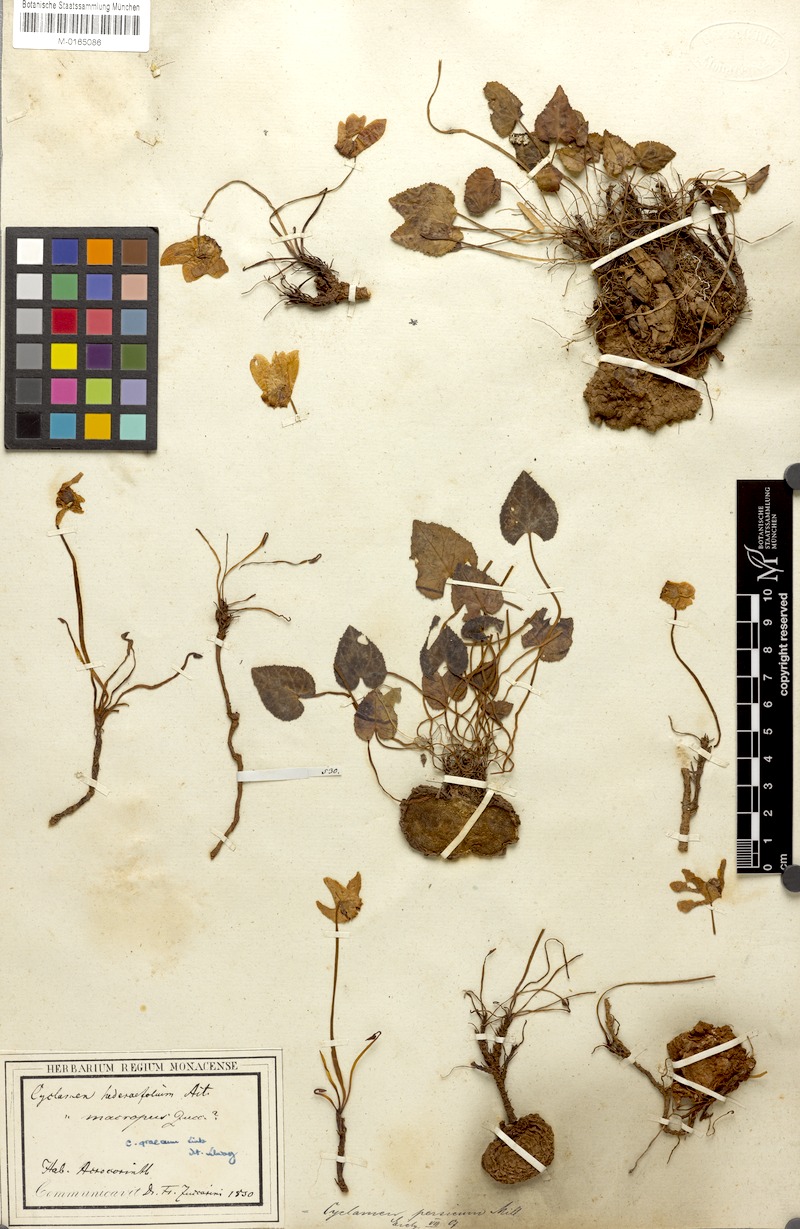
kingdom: Plantae
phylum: Tracheophyta
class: Magnoliopsida
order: Ericales
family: Primulaceae
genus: Cyclamen
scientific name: Cyclamen graecum
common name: Greek cyclamen
